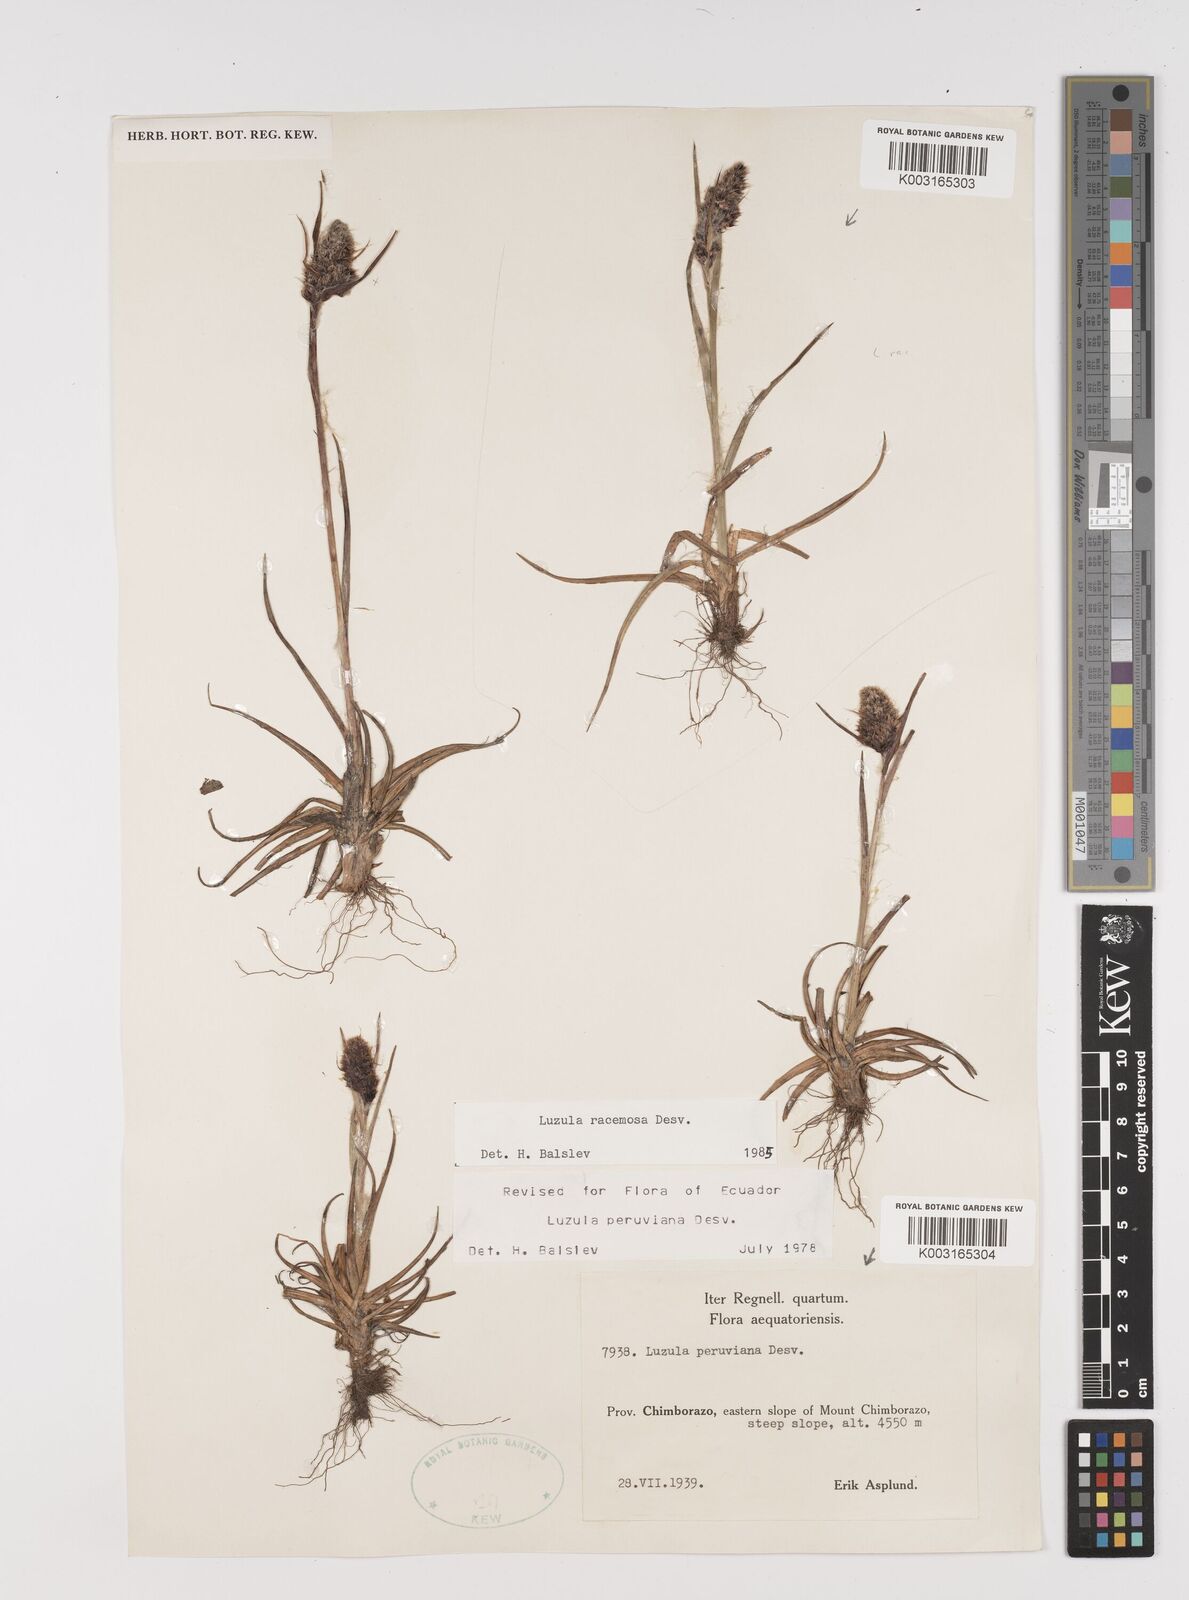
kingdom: Plantae
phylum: Tracheophyta
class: Liliopsida
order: Poales
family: Juncaceae
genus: Luzula
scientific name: Luzula racemosa
